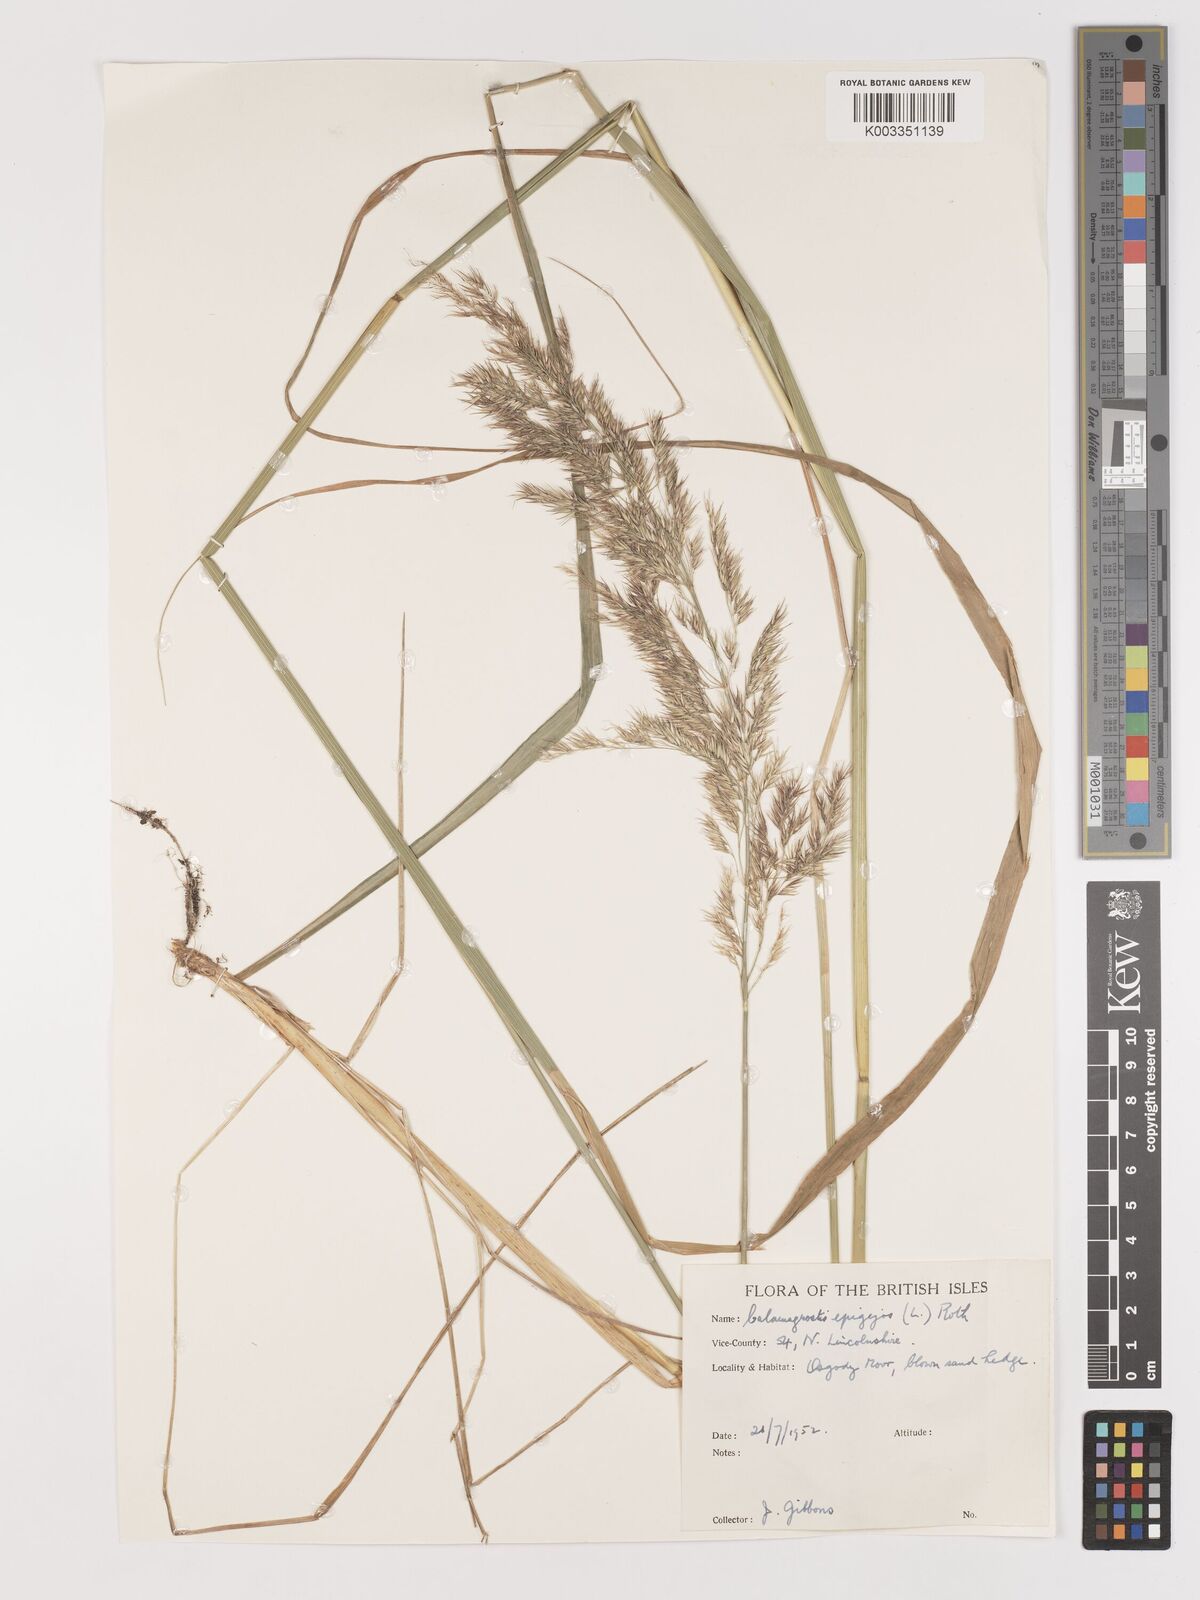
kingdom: Plantae
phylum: Tracheophyta
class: Liliopsida
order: Poales
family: Poaceae
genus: Calamagrostis
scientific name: Calamagrostis
